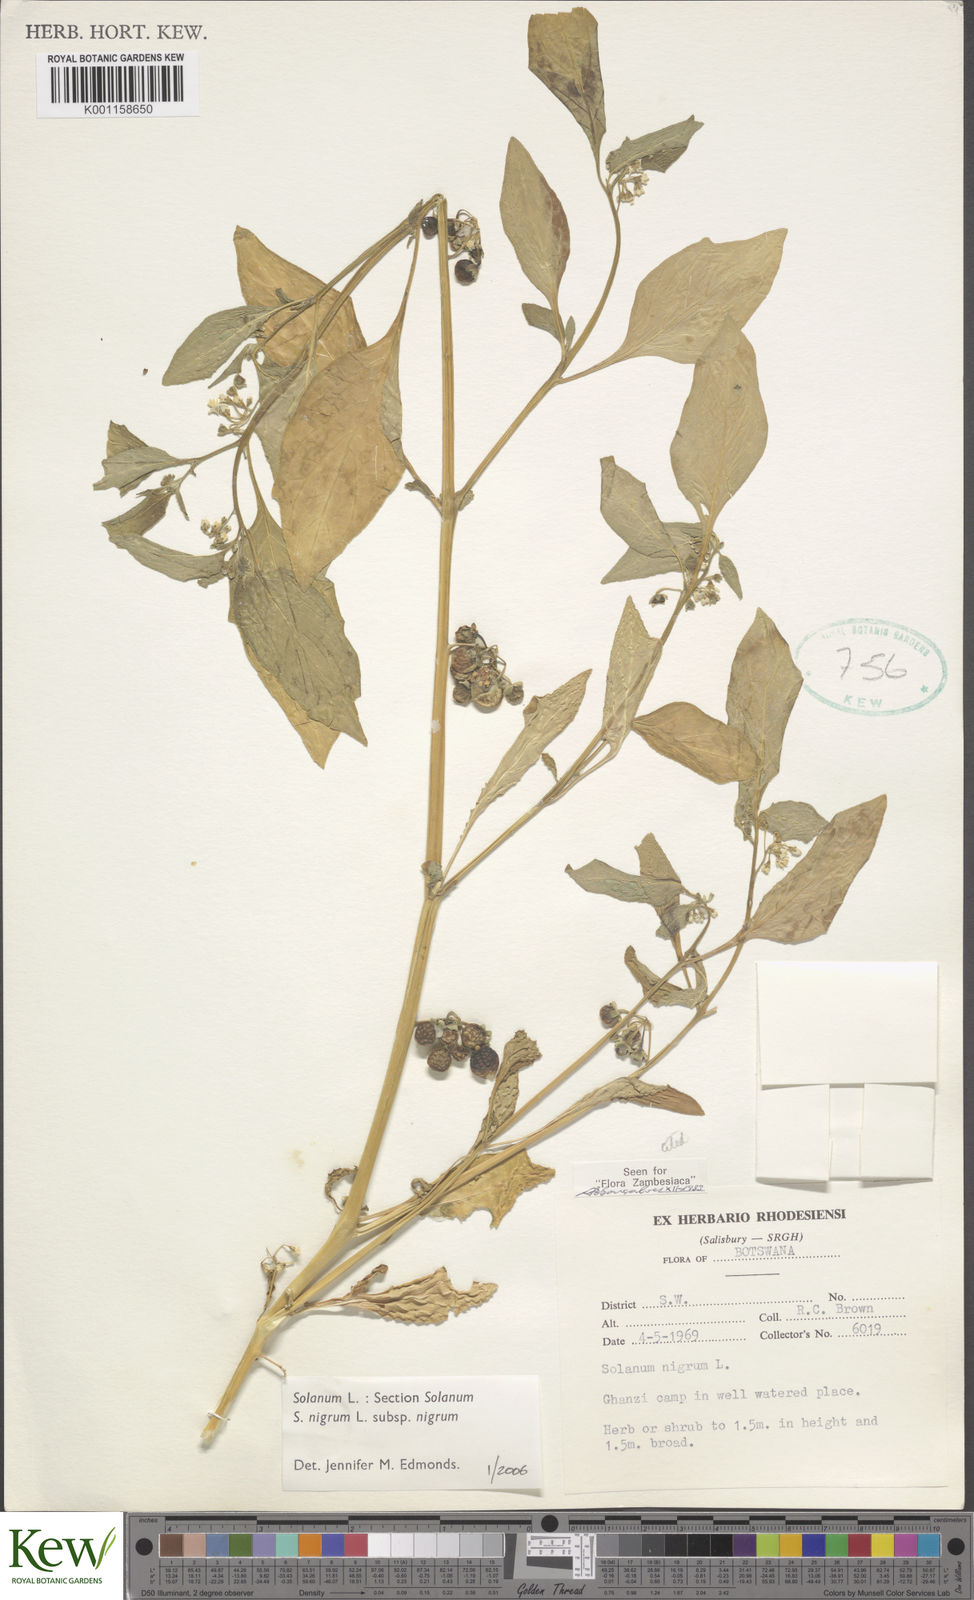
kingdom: Plantae
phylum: Tracheophyta
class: Magnoliopsida
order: Solanales
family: Solanaceae
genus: Solanum
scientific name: Solanum nigrum
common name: Black nightshade
